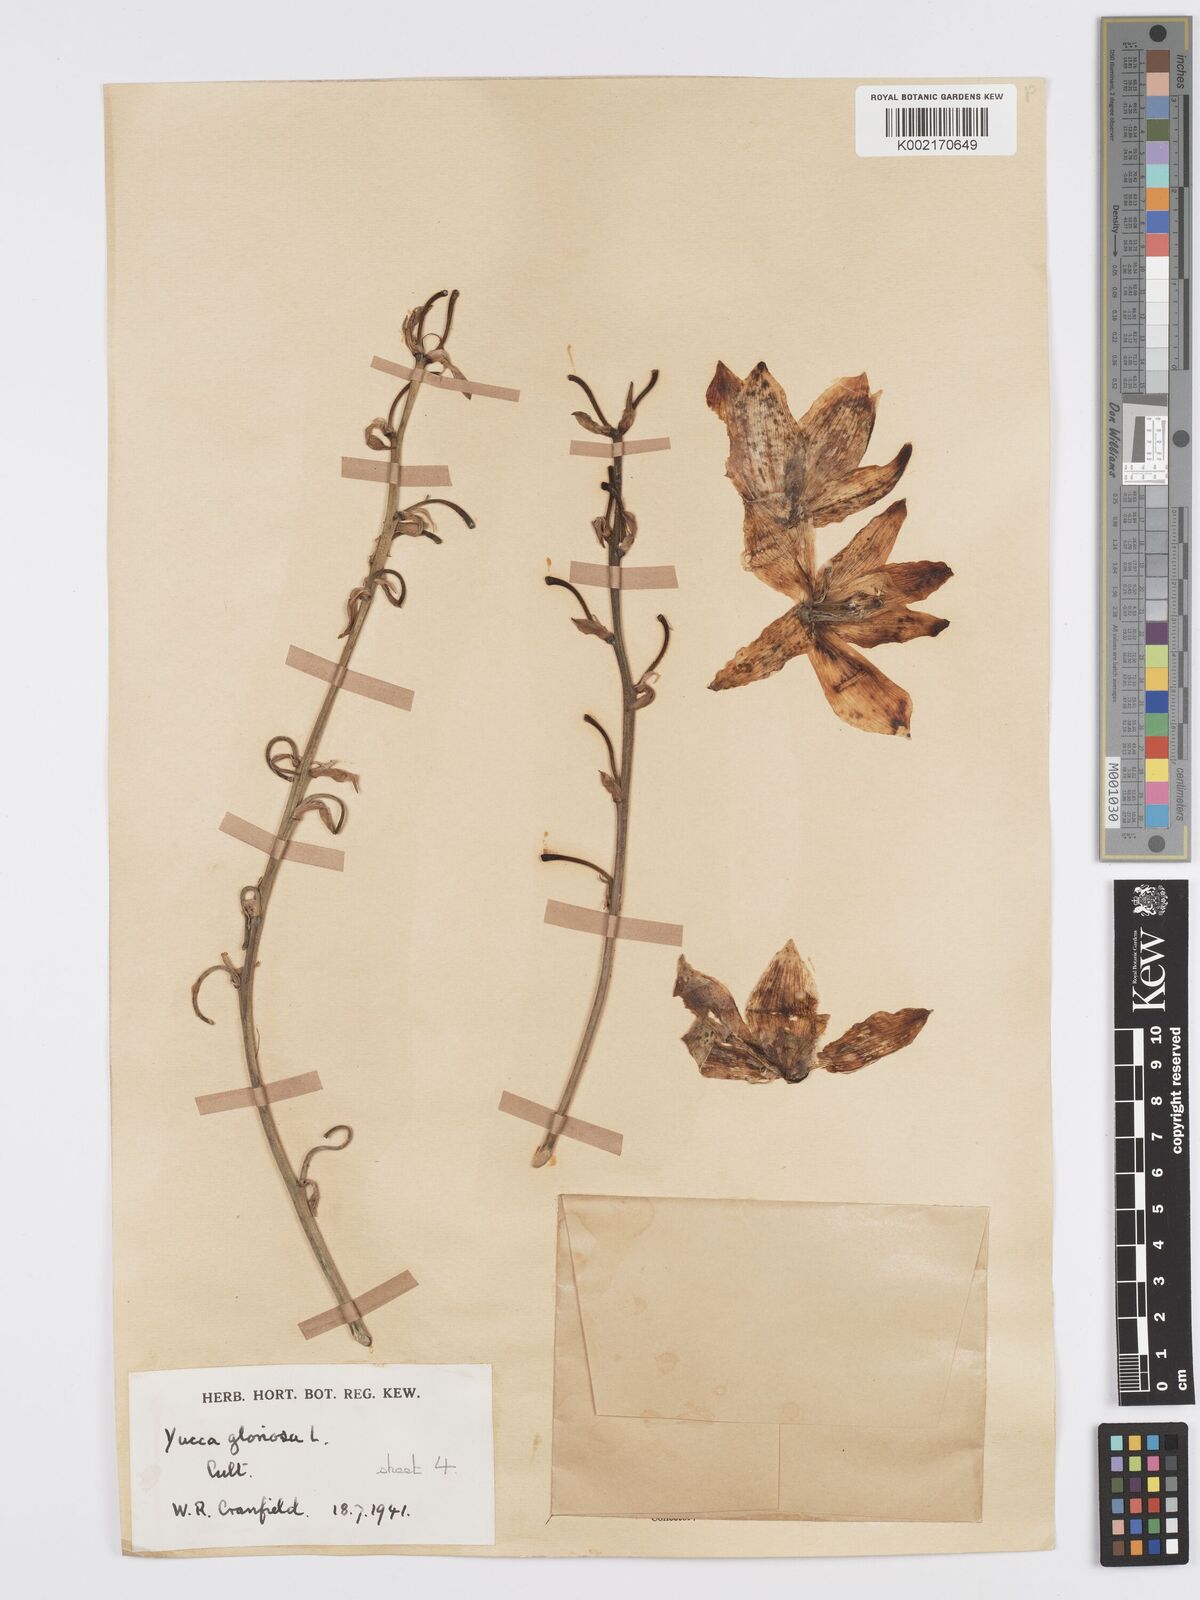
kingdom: Plantae
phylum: Tracheophyta
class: Liliopsida
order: Asparagales
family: Asparagaceae
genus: Yucca
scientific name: Yucca gloriosa
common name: Spanish-dagger
